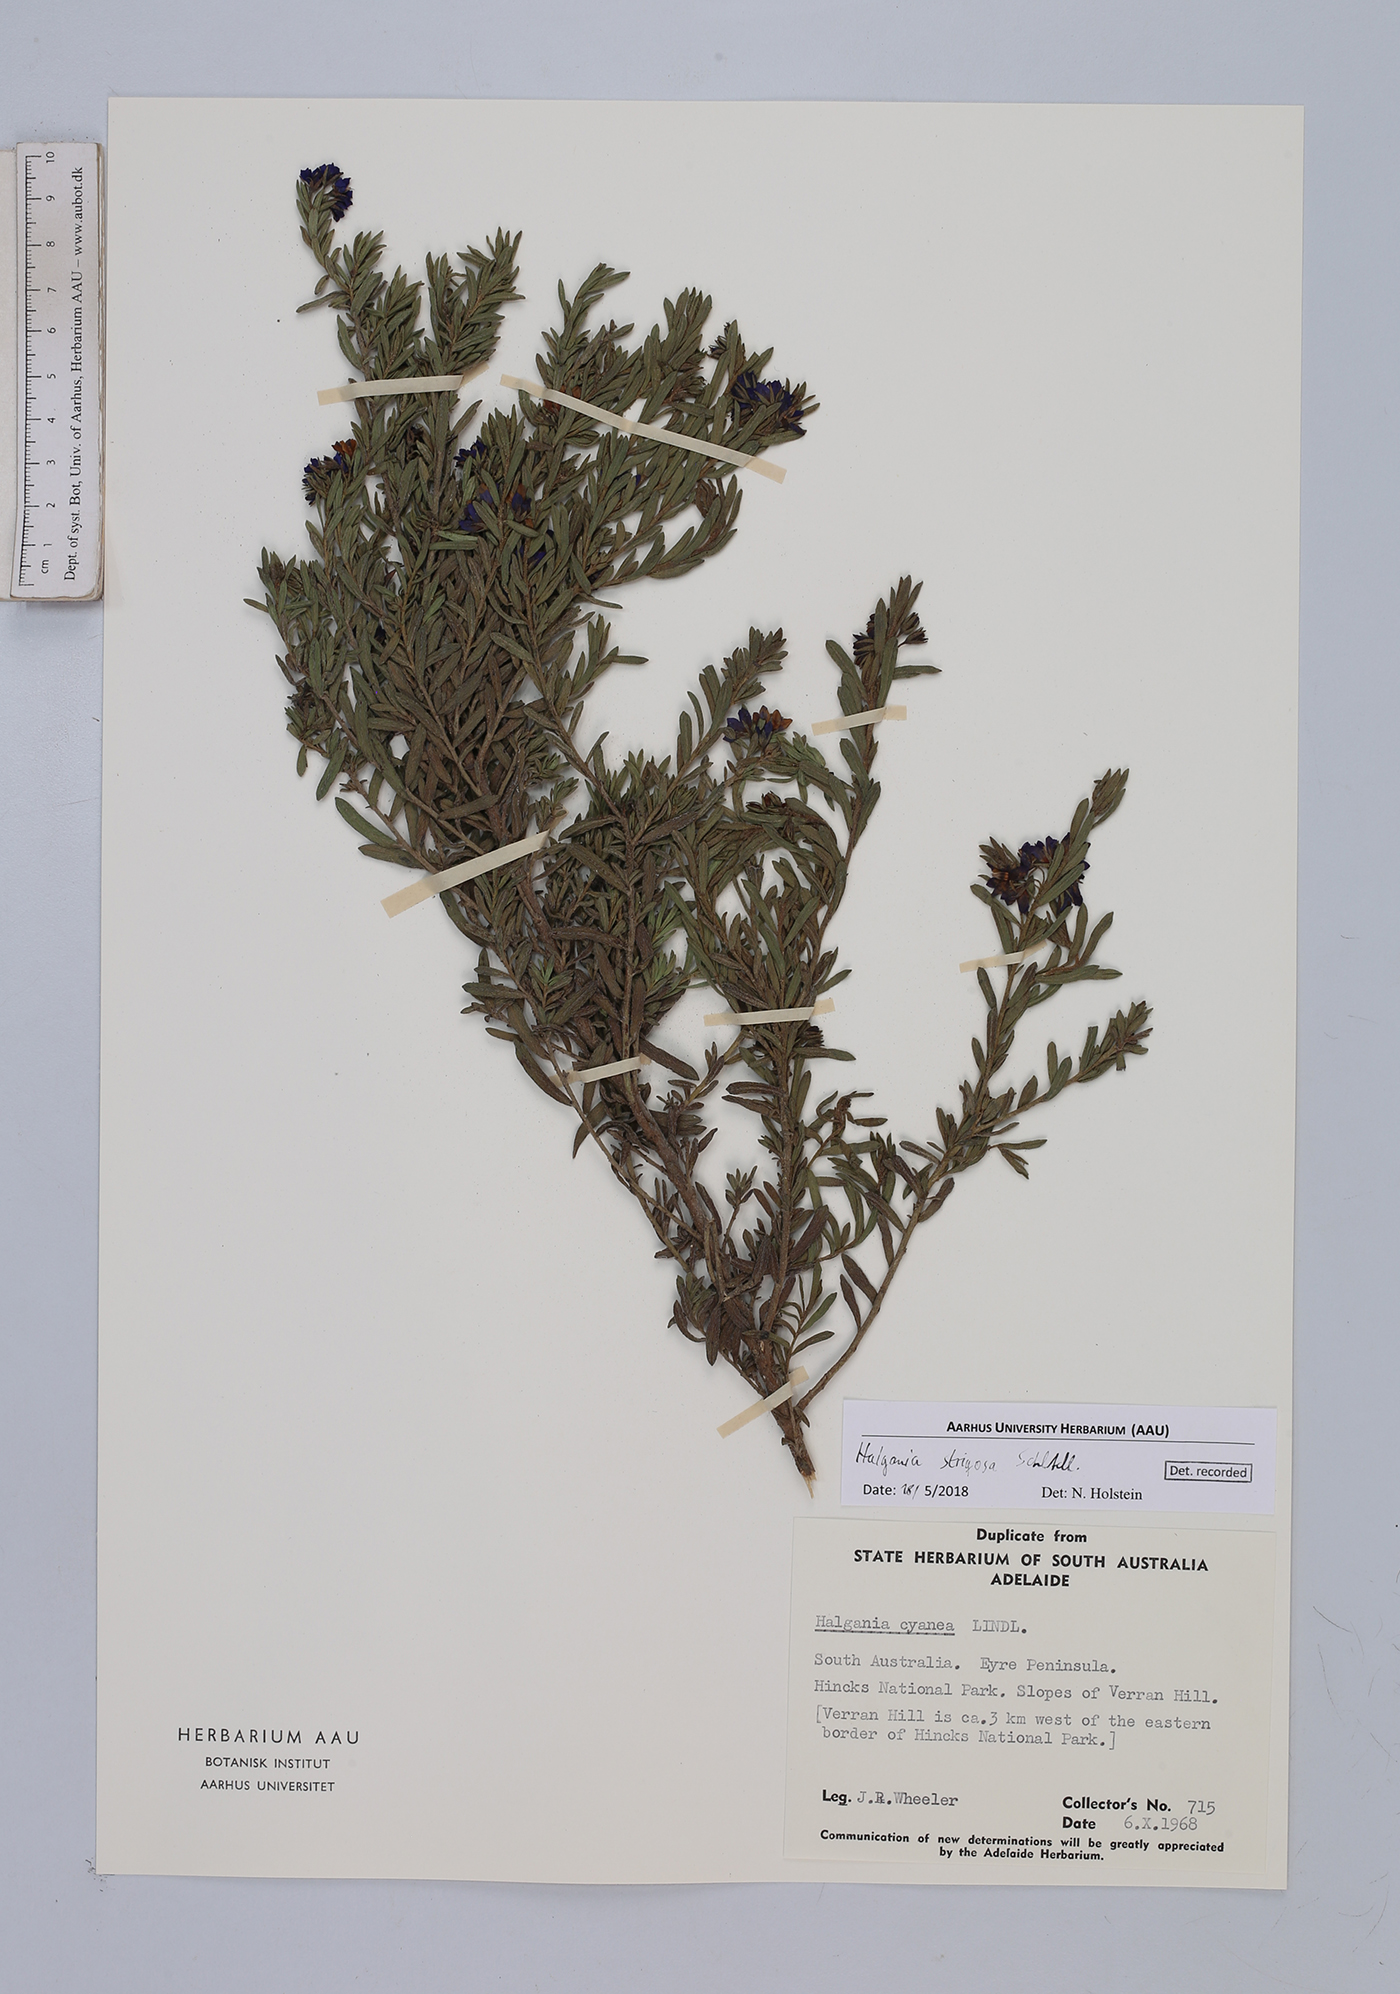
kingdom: Plantae
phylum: Tracheophyta
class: Magnoliopsida
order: Boraginales
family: Ehretiaceae
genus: Halgania
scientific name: Halgania cyanea
